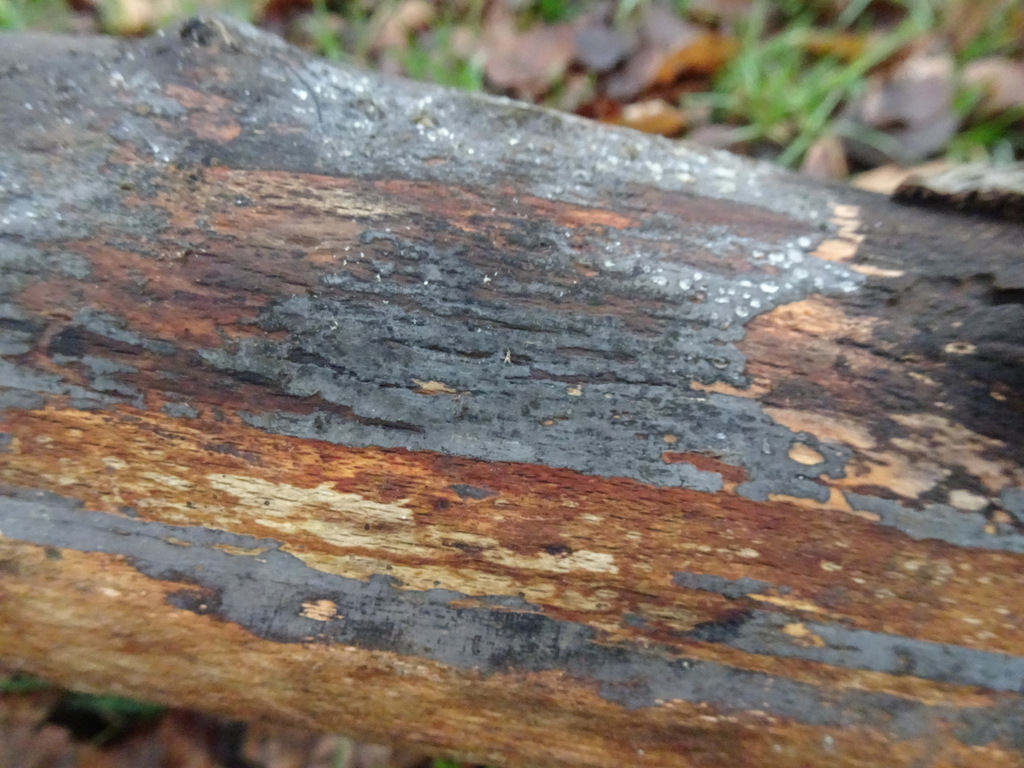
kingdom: Fungi
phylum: Basidiomycota
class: Agaricomycetes
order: Russulales
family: Peniophoraceae
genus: Peniophora
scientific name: Peniophora
